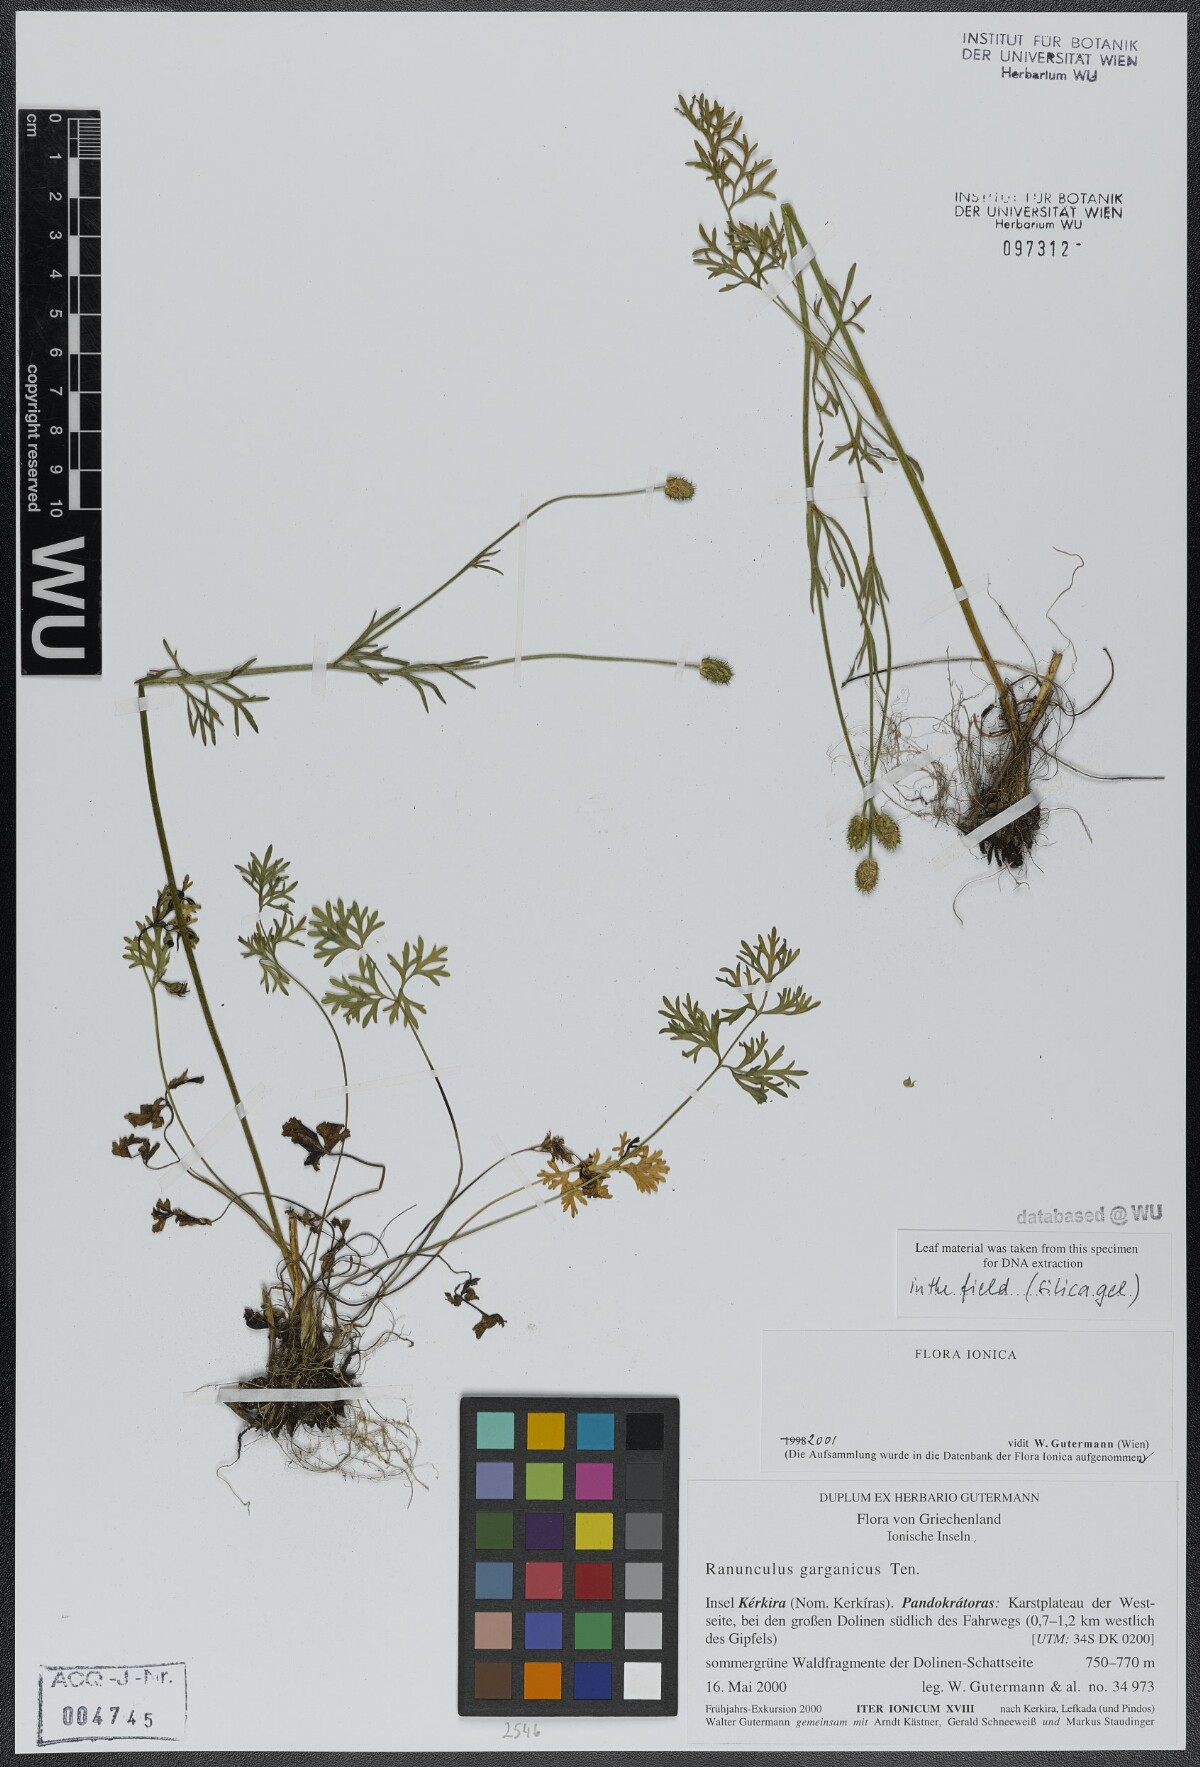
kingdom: Plantae
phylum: Tracheophyta
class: Magnoliopsida
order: Ranunculales
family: Ranunculaceae
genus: Ranunculus
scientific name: Ranunculus garganicus
